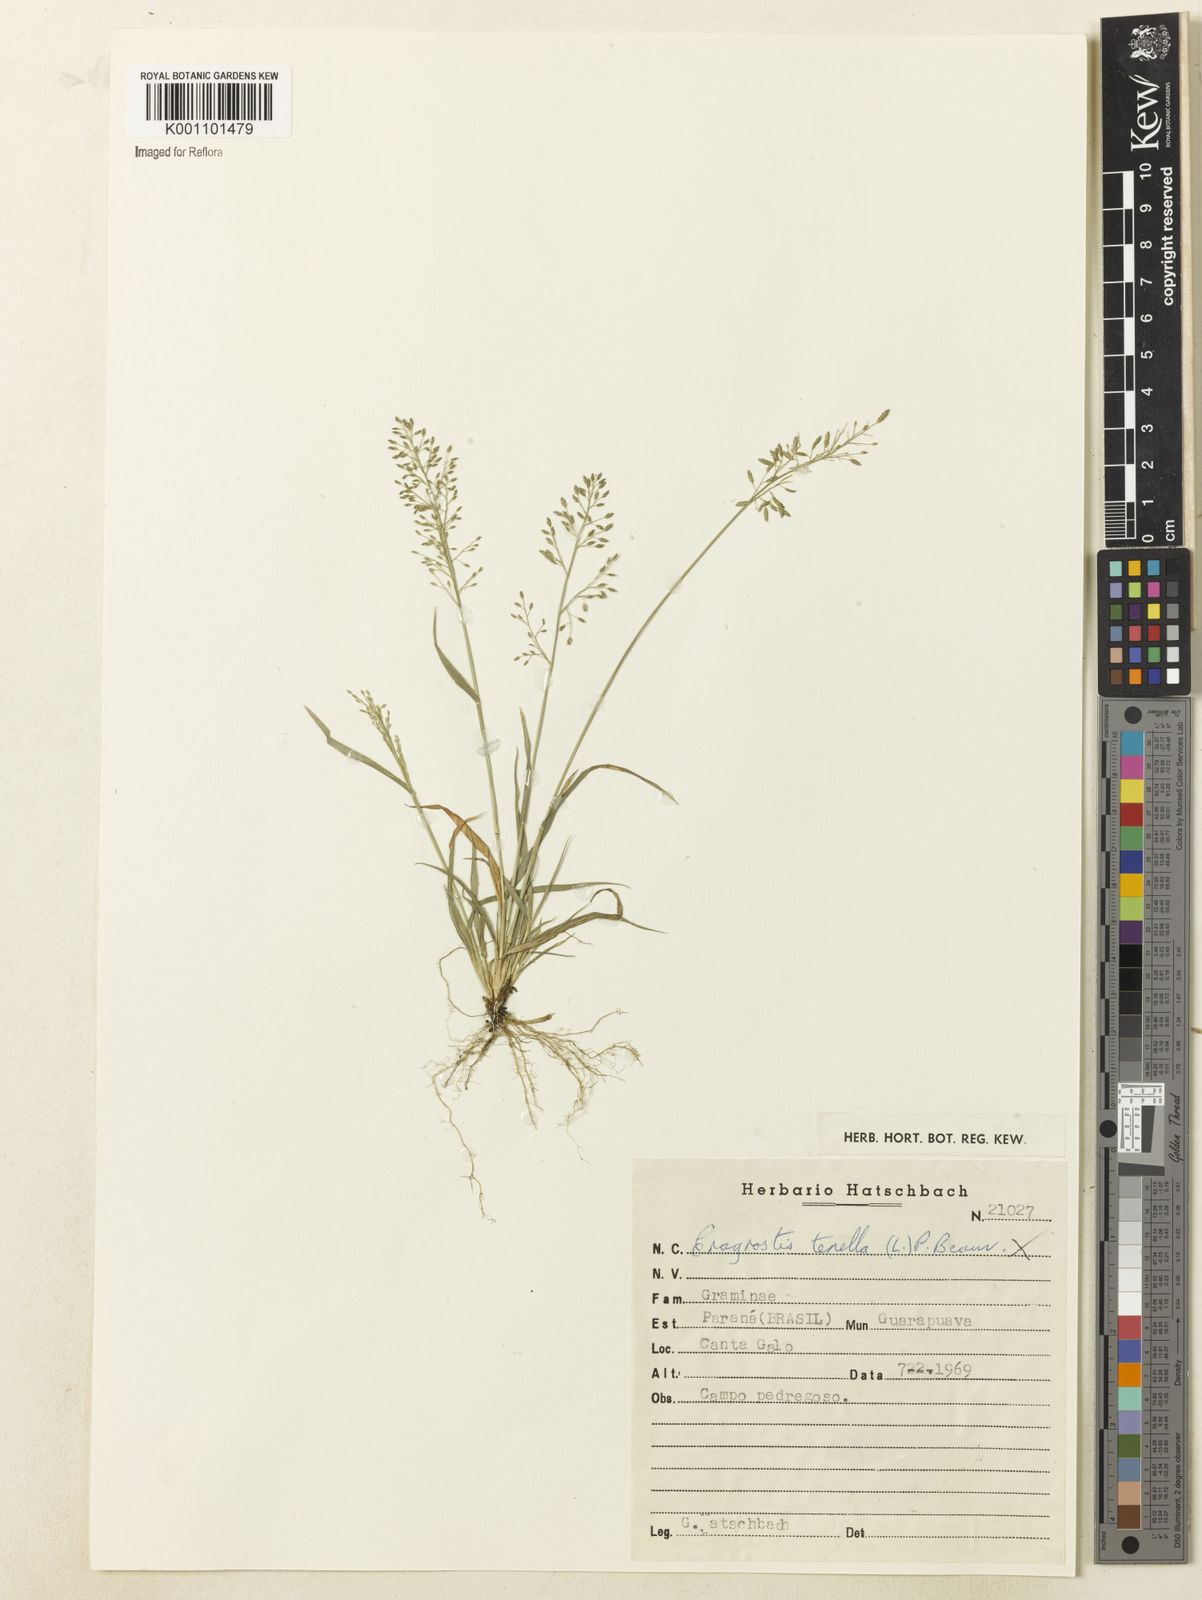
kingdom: Plantae
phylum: Tracheophyta
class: Liliopsida
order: Poales
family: Poaceae
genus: Eragrostis
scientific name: Eragrostis neesii
